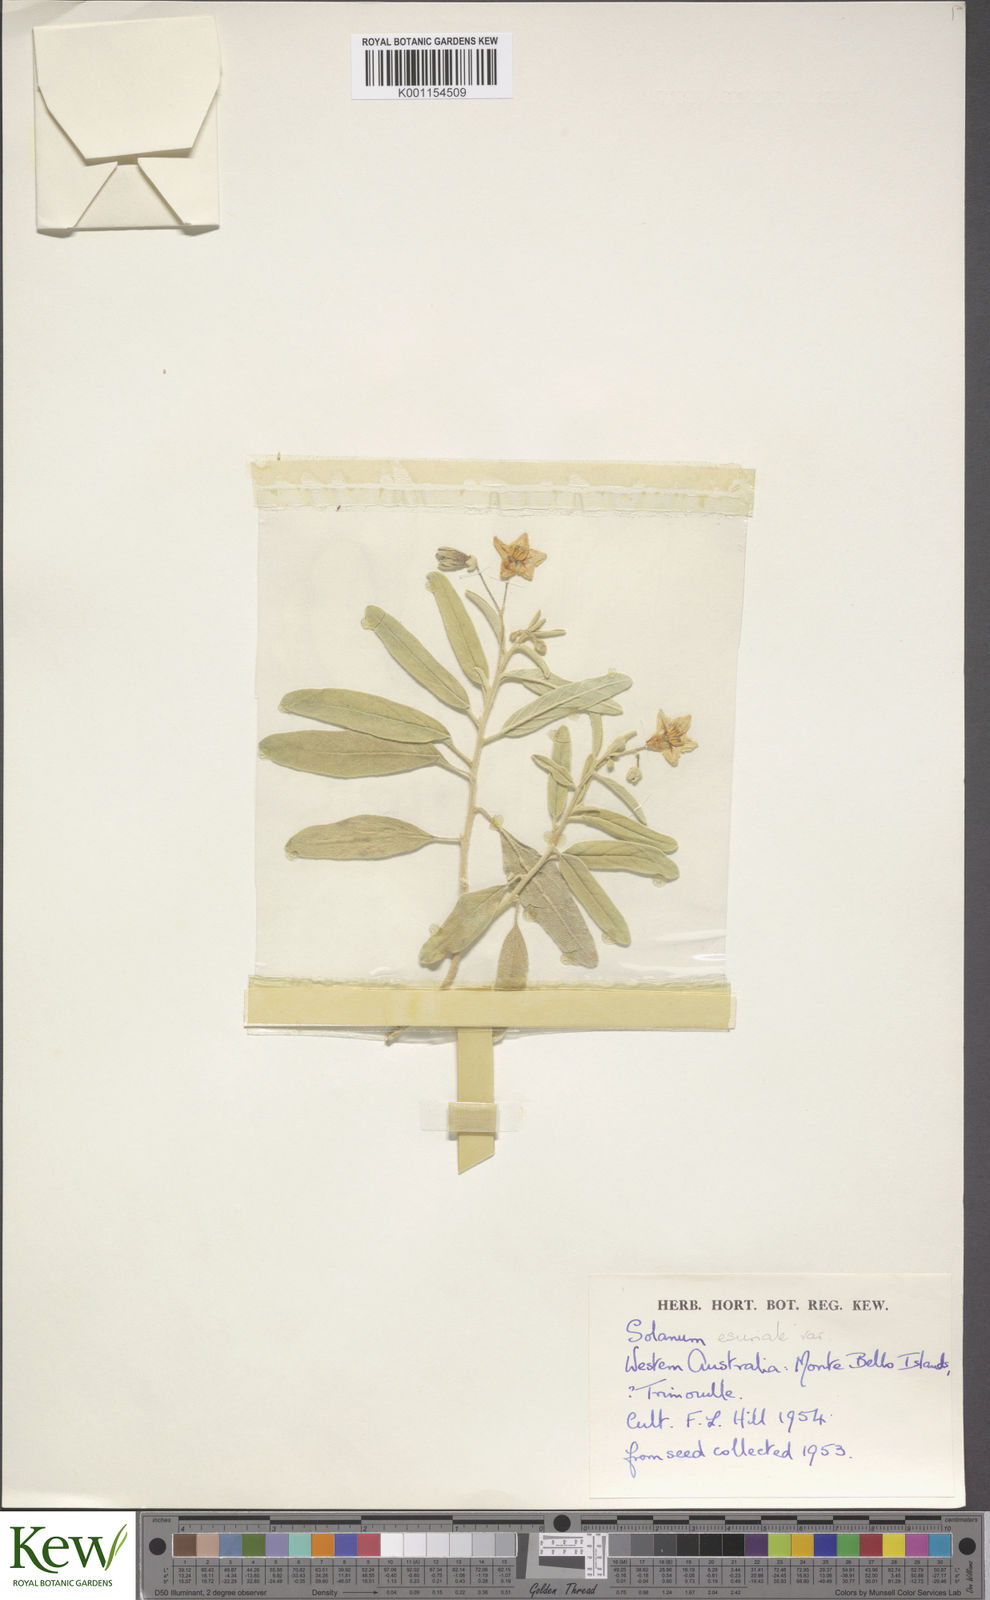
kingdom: Plantae
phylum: Tracheophyta
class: Magnoliopsida
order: Solanales
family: Solanaceae
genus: Solanum
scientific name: Solanum esuriale
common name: Wild tomato
